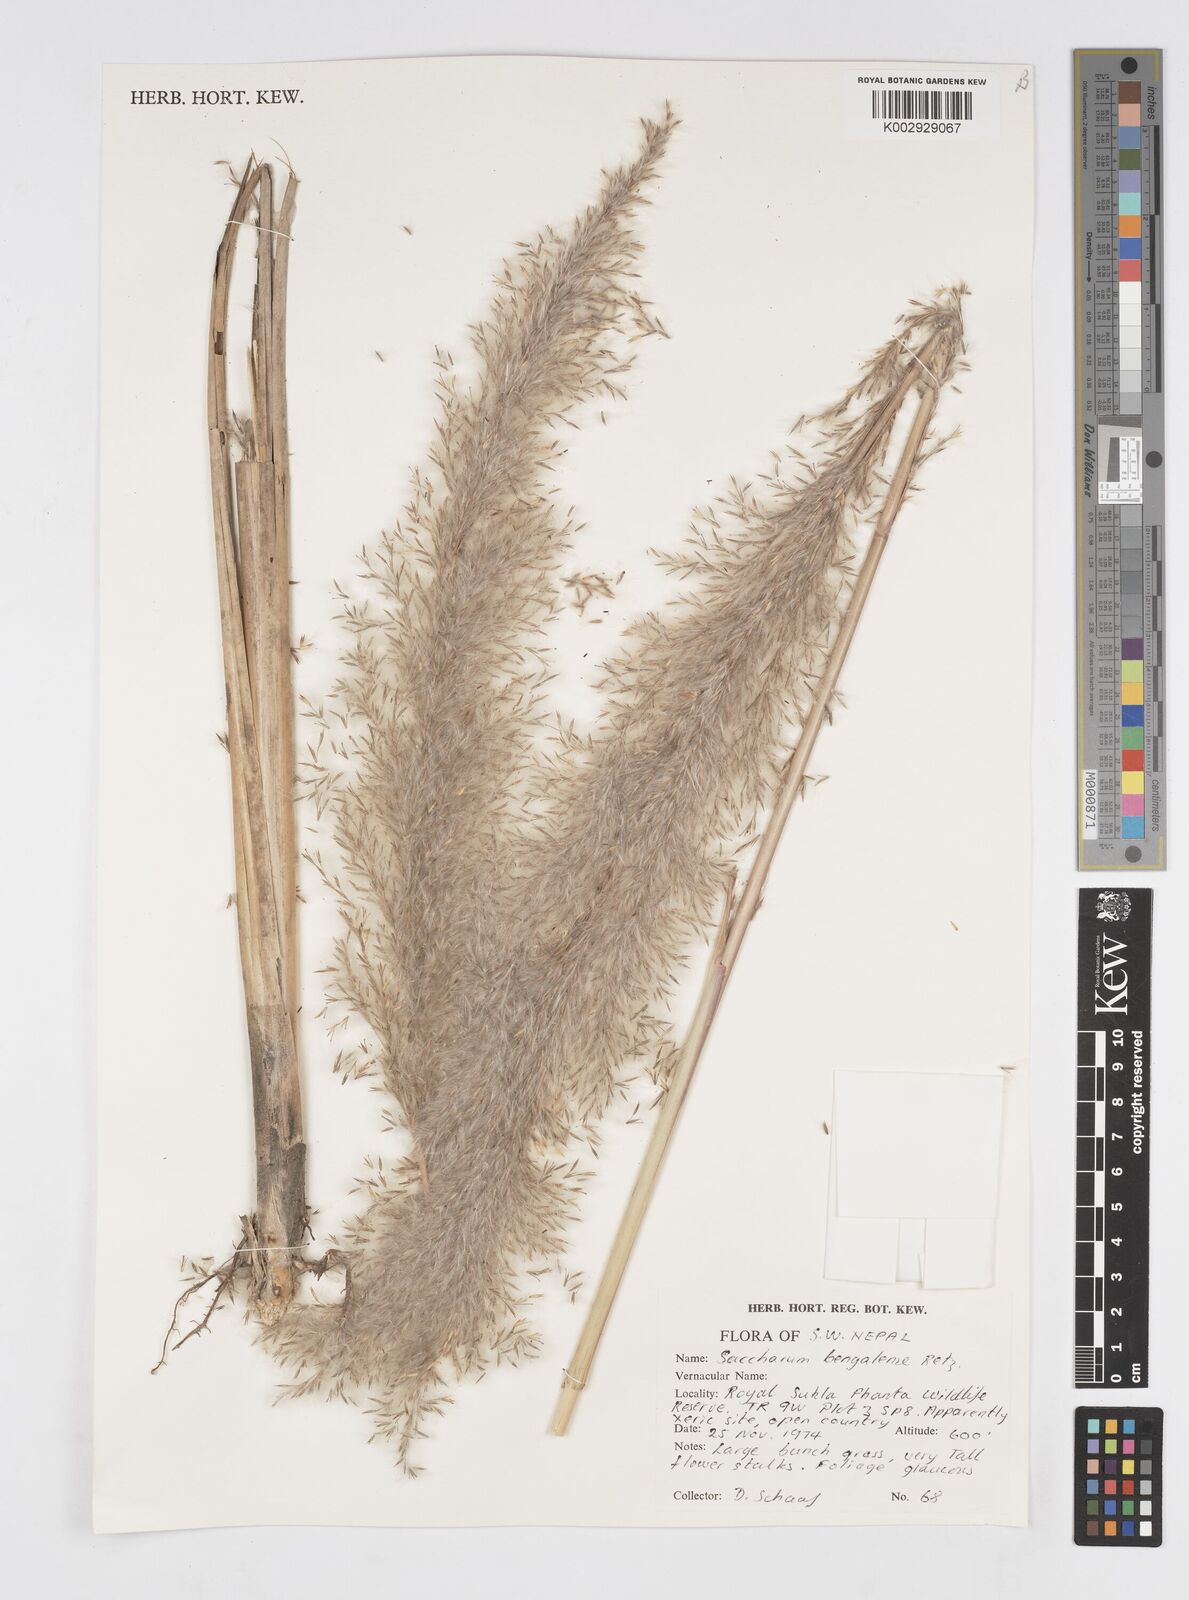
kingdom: Plantae
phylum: Tracheophyta
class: Liliopsida
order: Poales
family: Poaceae
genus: Tripidium
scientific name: Tripidium bengalense
